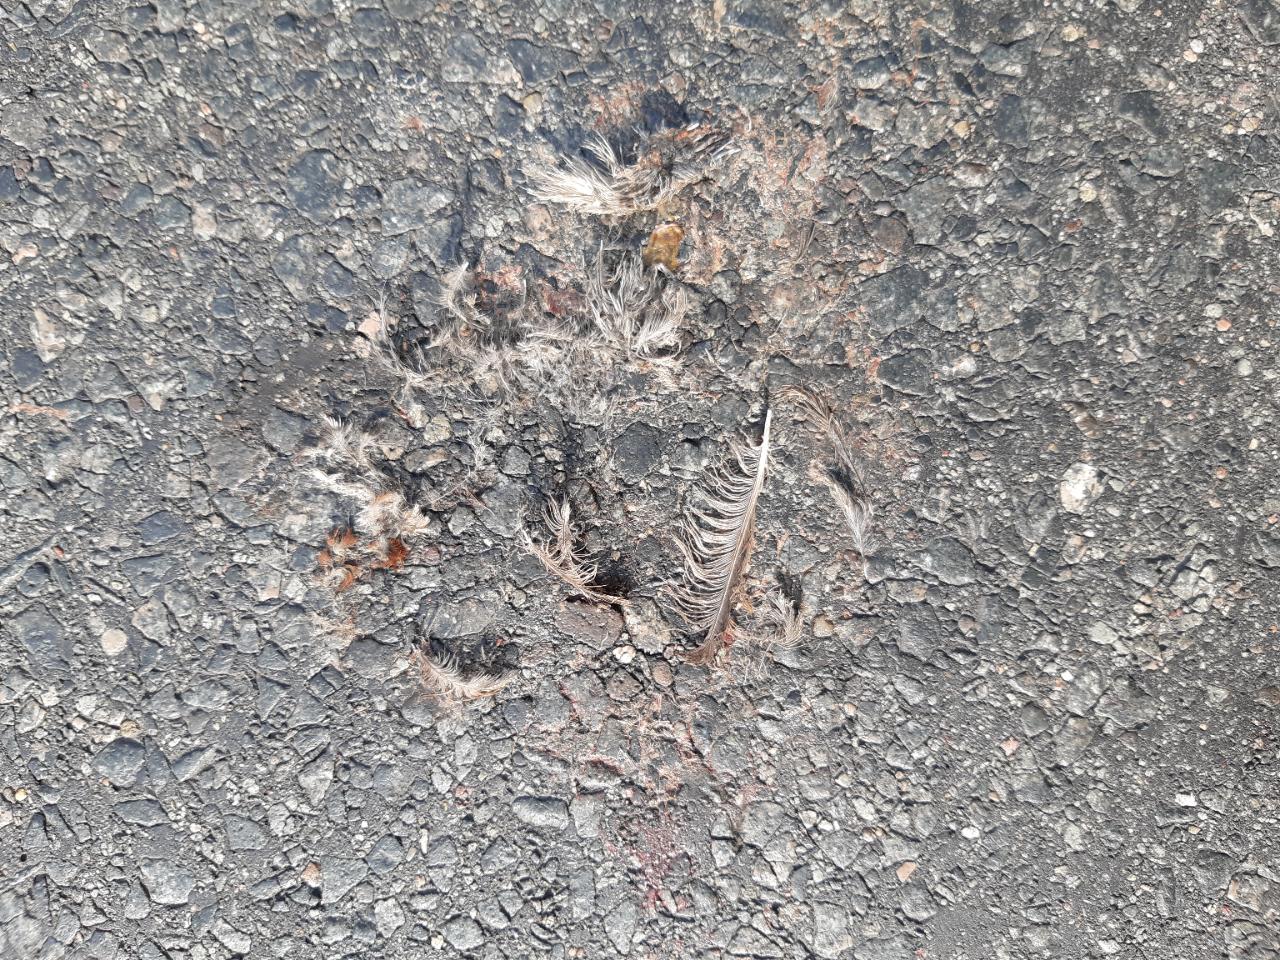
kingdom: Animalia
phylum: Chordata
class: Aves
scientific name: Aves
